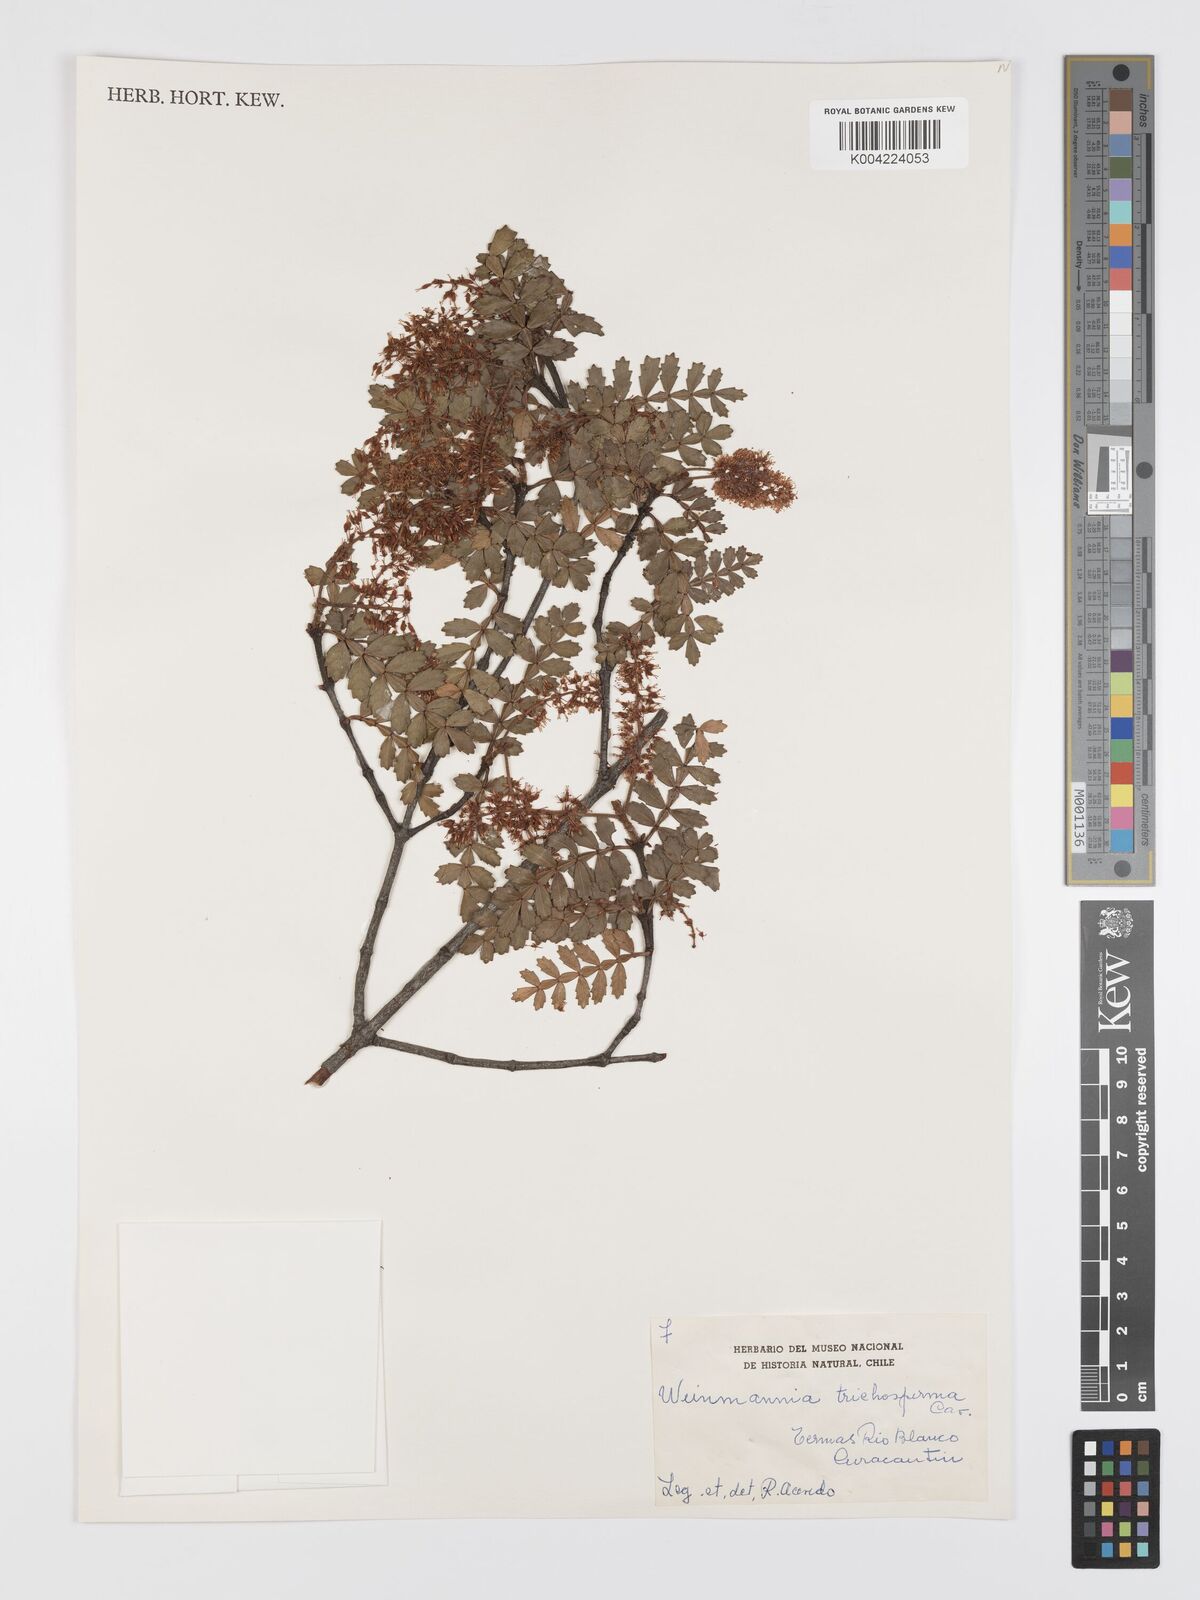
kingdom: Plantae
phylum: Tracheophyta
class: Magnoliopsida
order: Oxalidales
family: Cunoniaceae
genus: Weinmannia
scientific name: Weinmannia trichosperma
